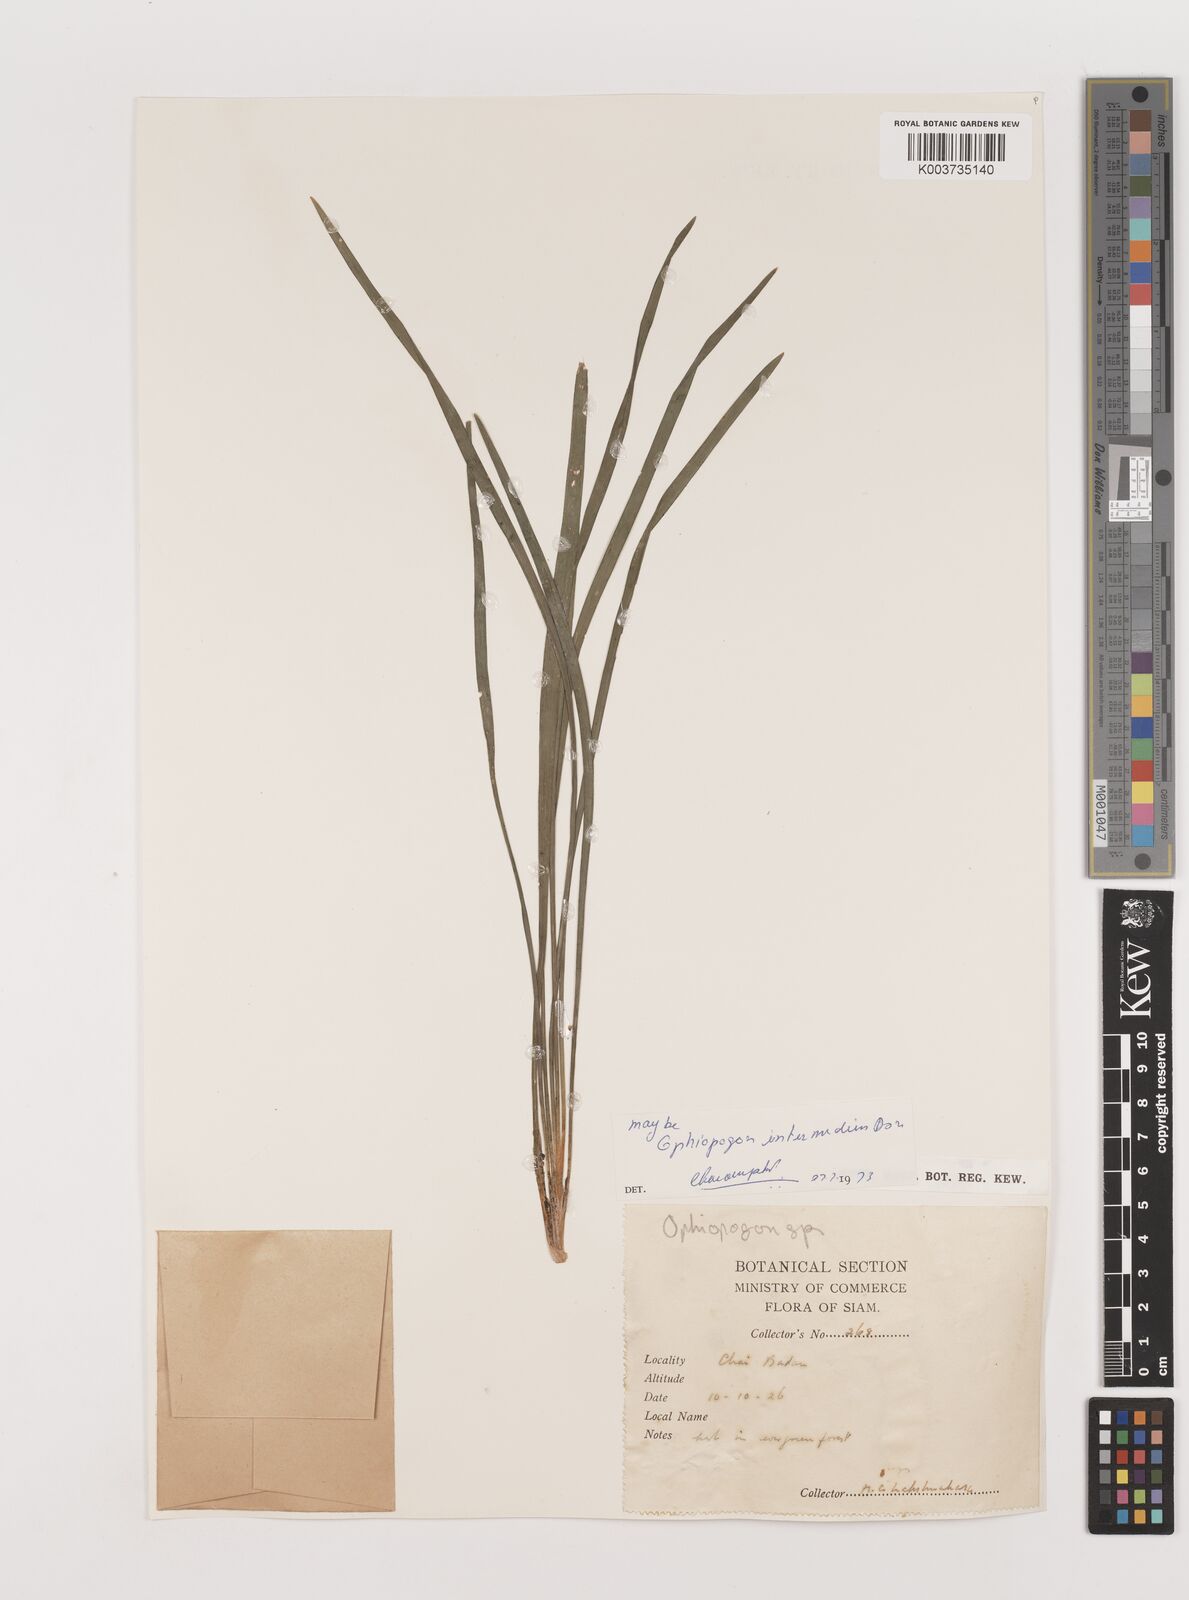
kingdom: Plantae
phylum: Tracheophyta
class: Liliopsida
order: Asparagales
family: Asparagaceae
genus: Ophiopogon
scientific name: Ophiopogon intermedius
